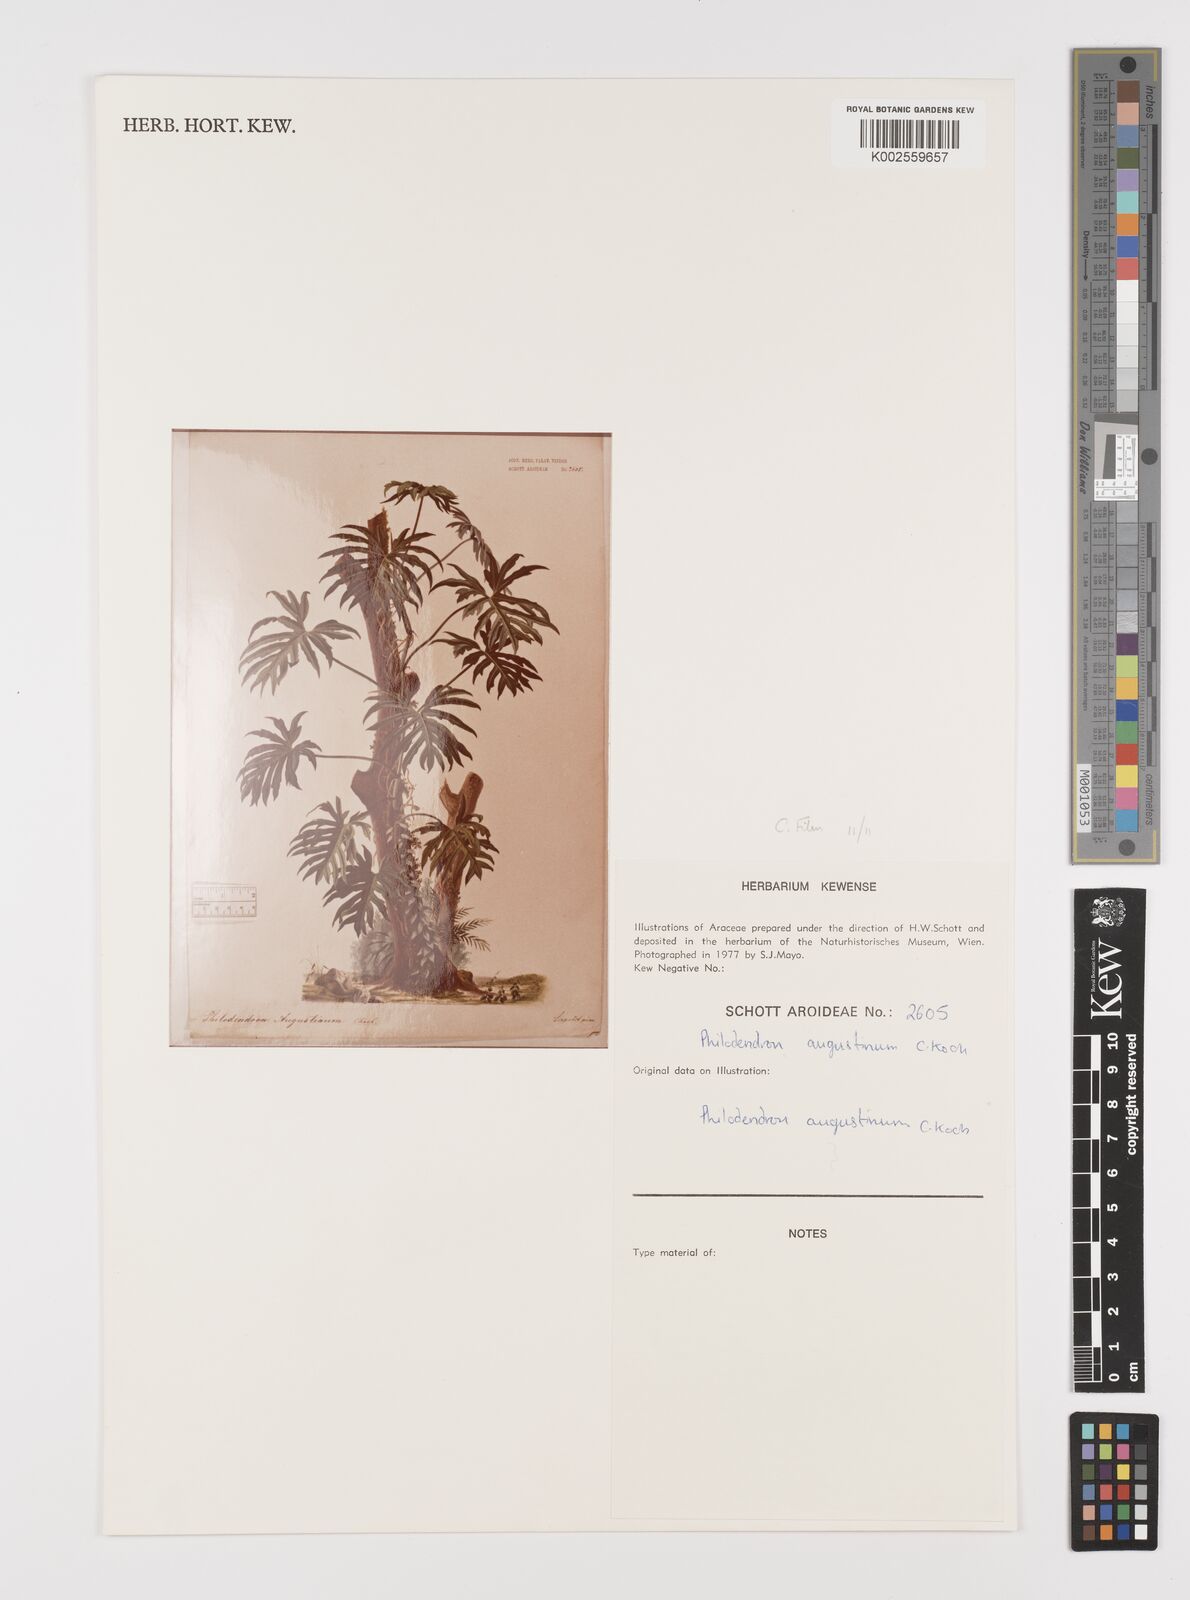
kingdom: Plantae
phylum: Tracheophyta
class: Liliopsida
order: Alismatales
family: Araceae
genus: Philodendron
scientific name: Philodendron radiatum
